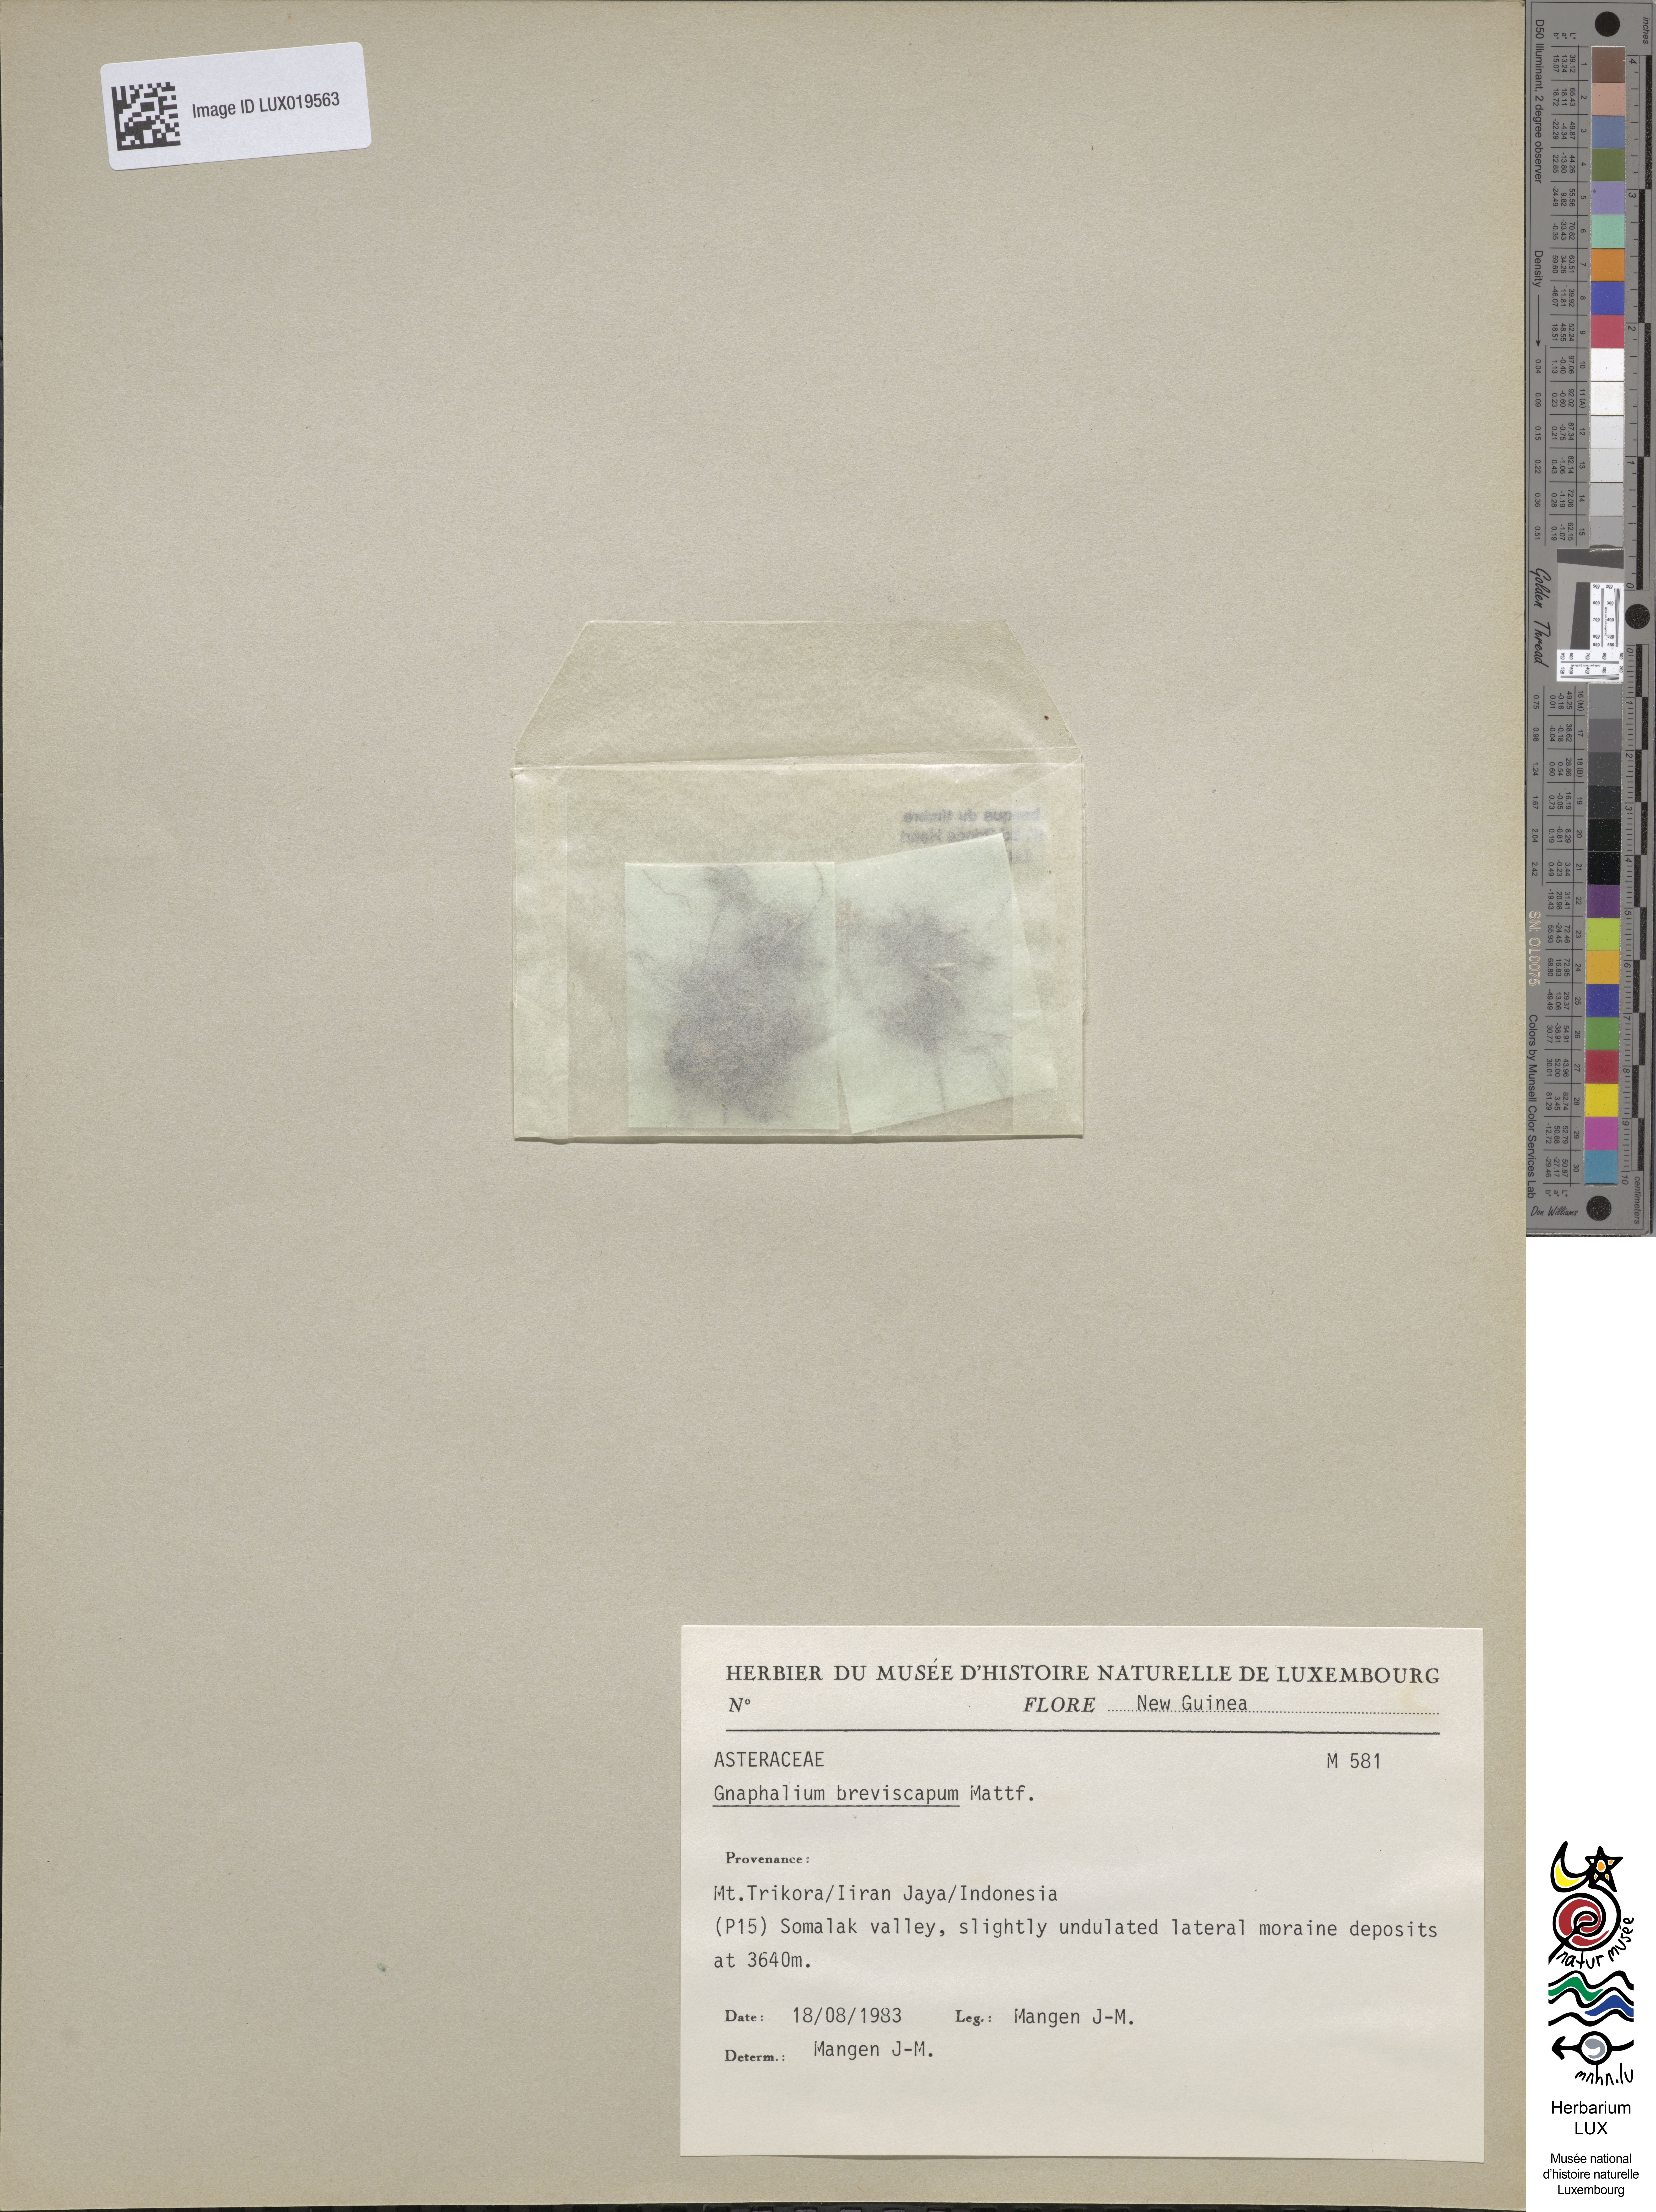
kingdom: Plantae
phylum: Tracheophyta
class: Magnoliopsida
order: Asterales
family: Asteraceae
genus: Euchiton
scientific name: Euchiton breviscapus
